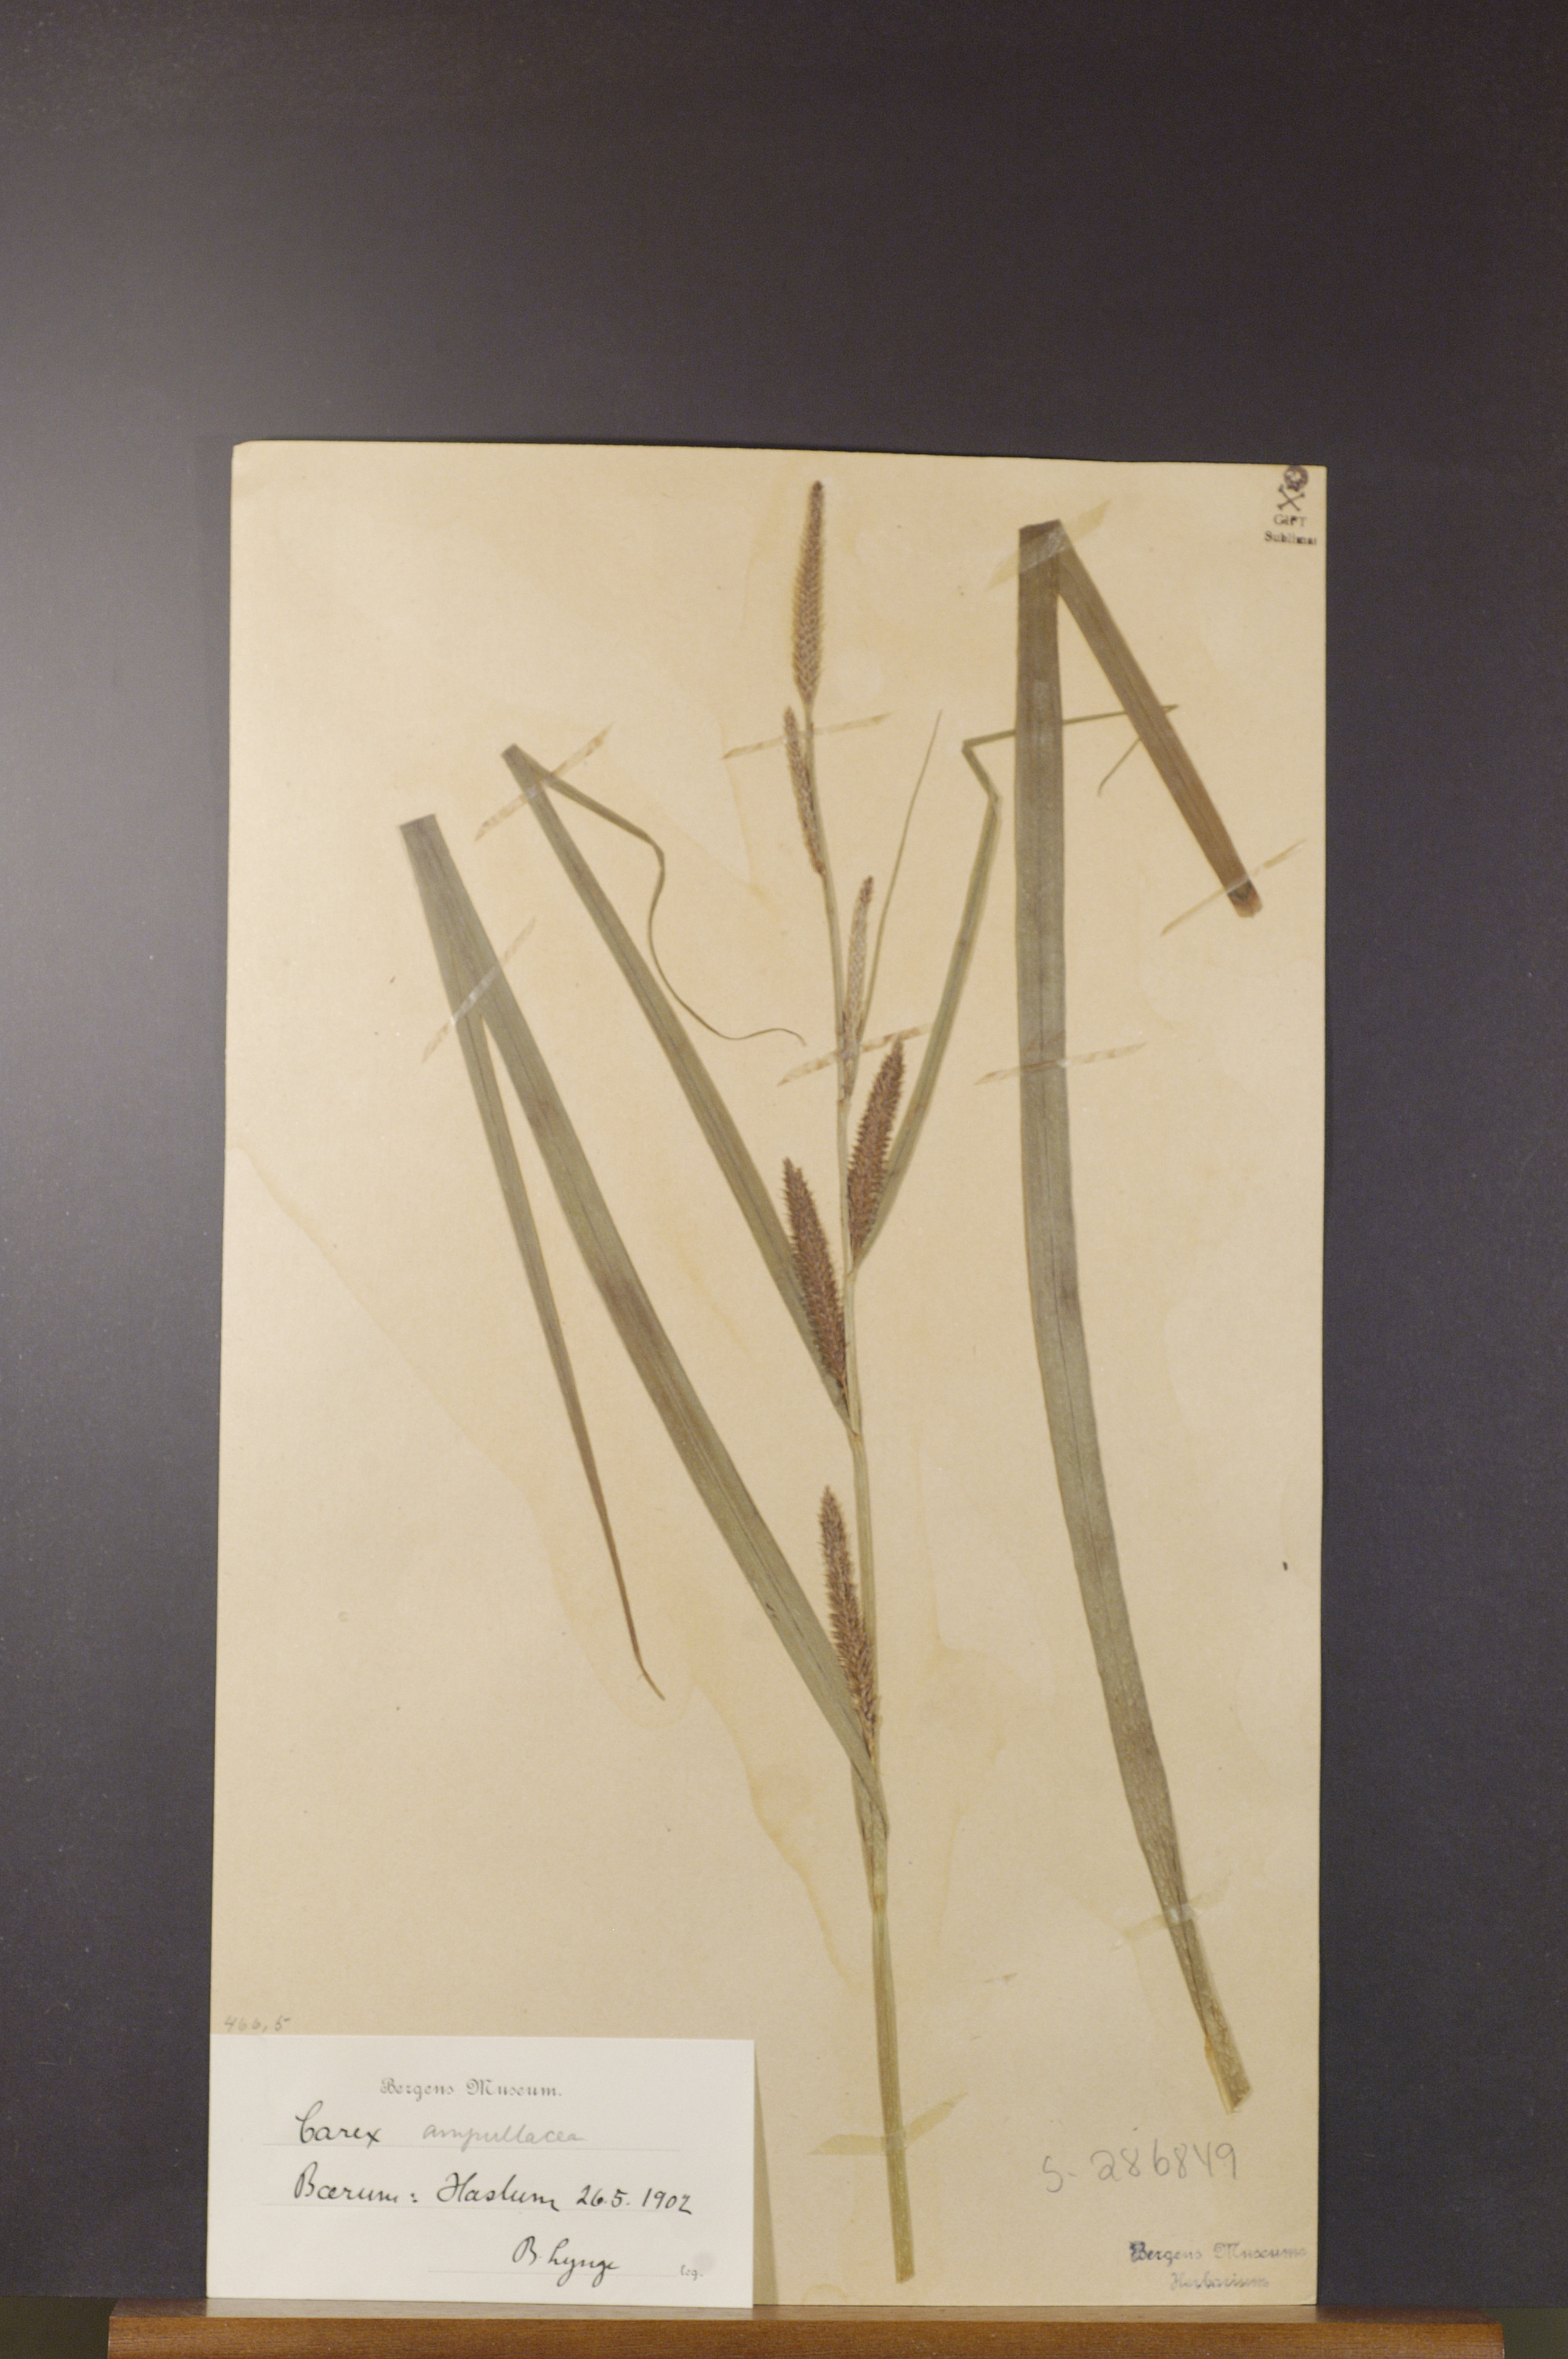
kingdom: Plantae
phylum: Tracheophyta
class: Liliopsida
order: Poales
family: Cyperaceae
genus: Carex
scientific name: Carex vesicaria
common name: Bladder-sedge
